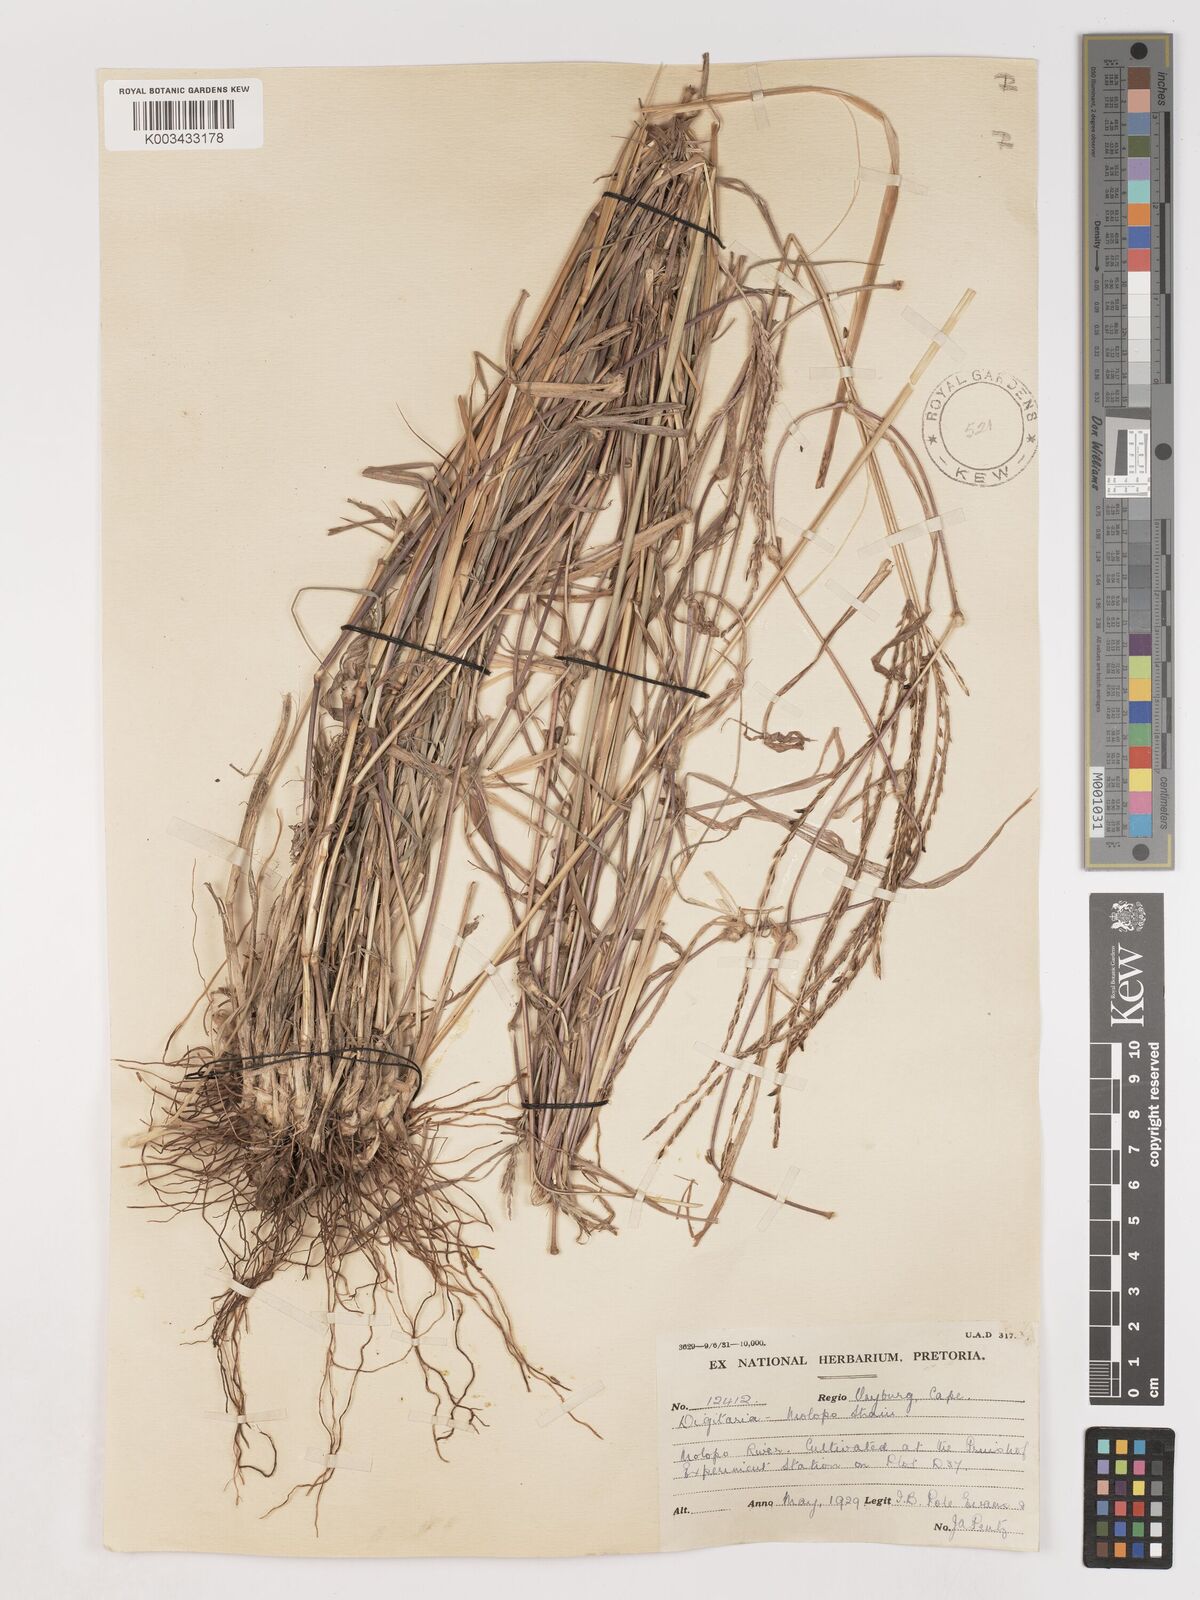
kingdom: Plantae
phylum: Tracheophyta
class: Liliopsida
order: Poales
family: Poaceae
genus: Digitaria
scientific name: Digitaria milanjiana
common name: Madagascar crabgrass
